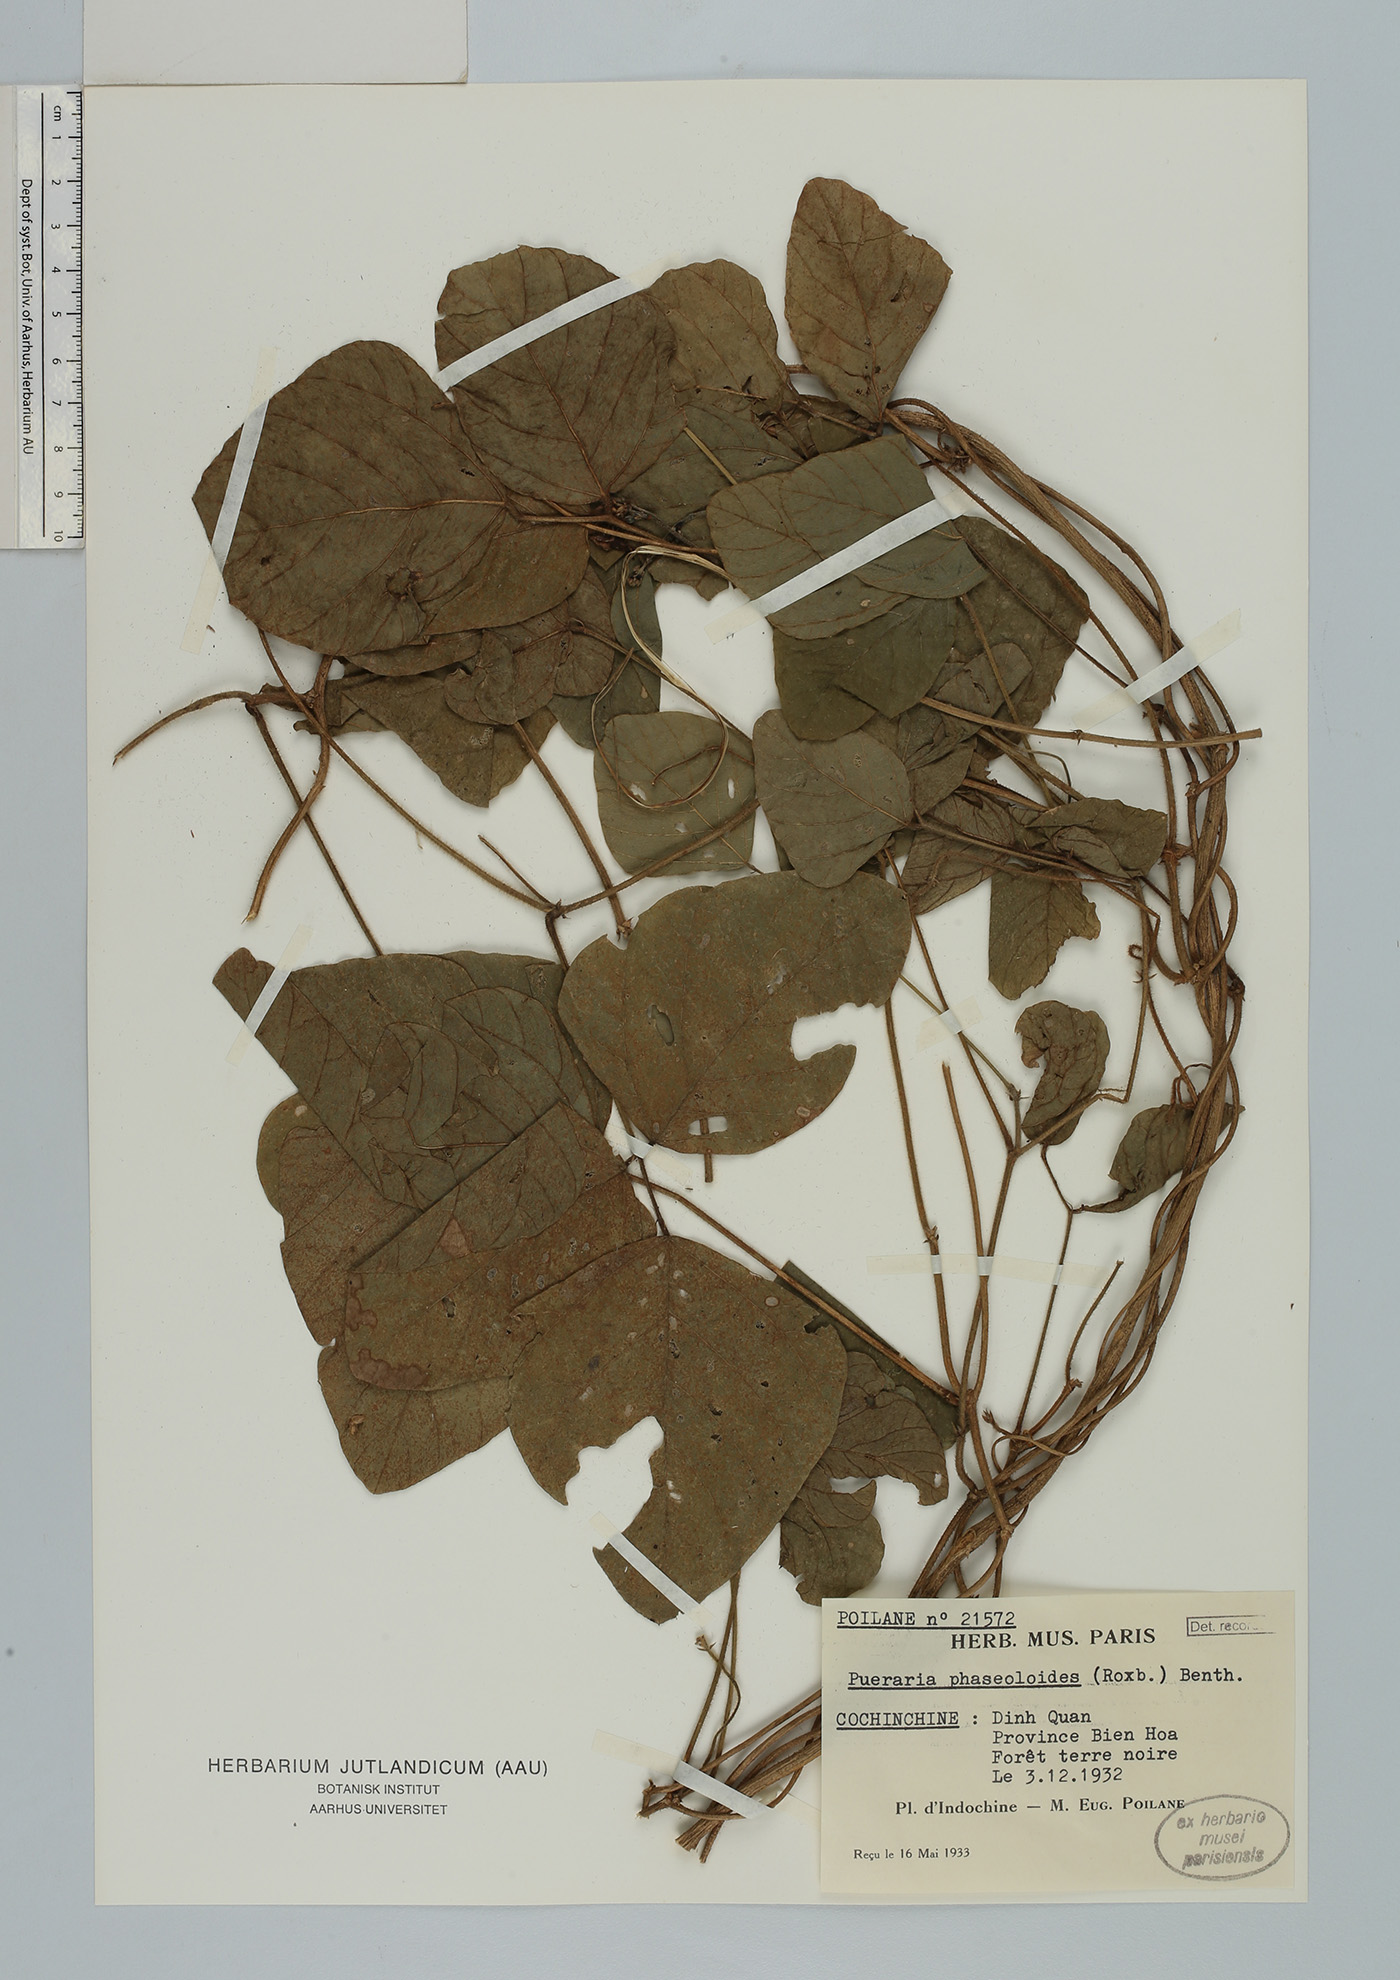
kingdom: Plantae
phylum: Tracheophyta
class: Magnoliopsida
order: Fabales
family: Fabaceae
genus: Neustanthus
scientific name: Neustanthus phaseoloides
